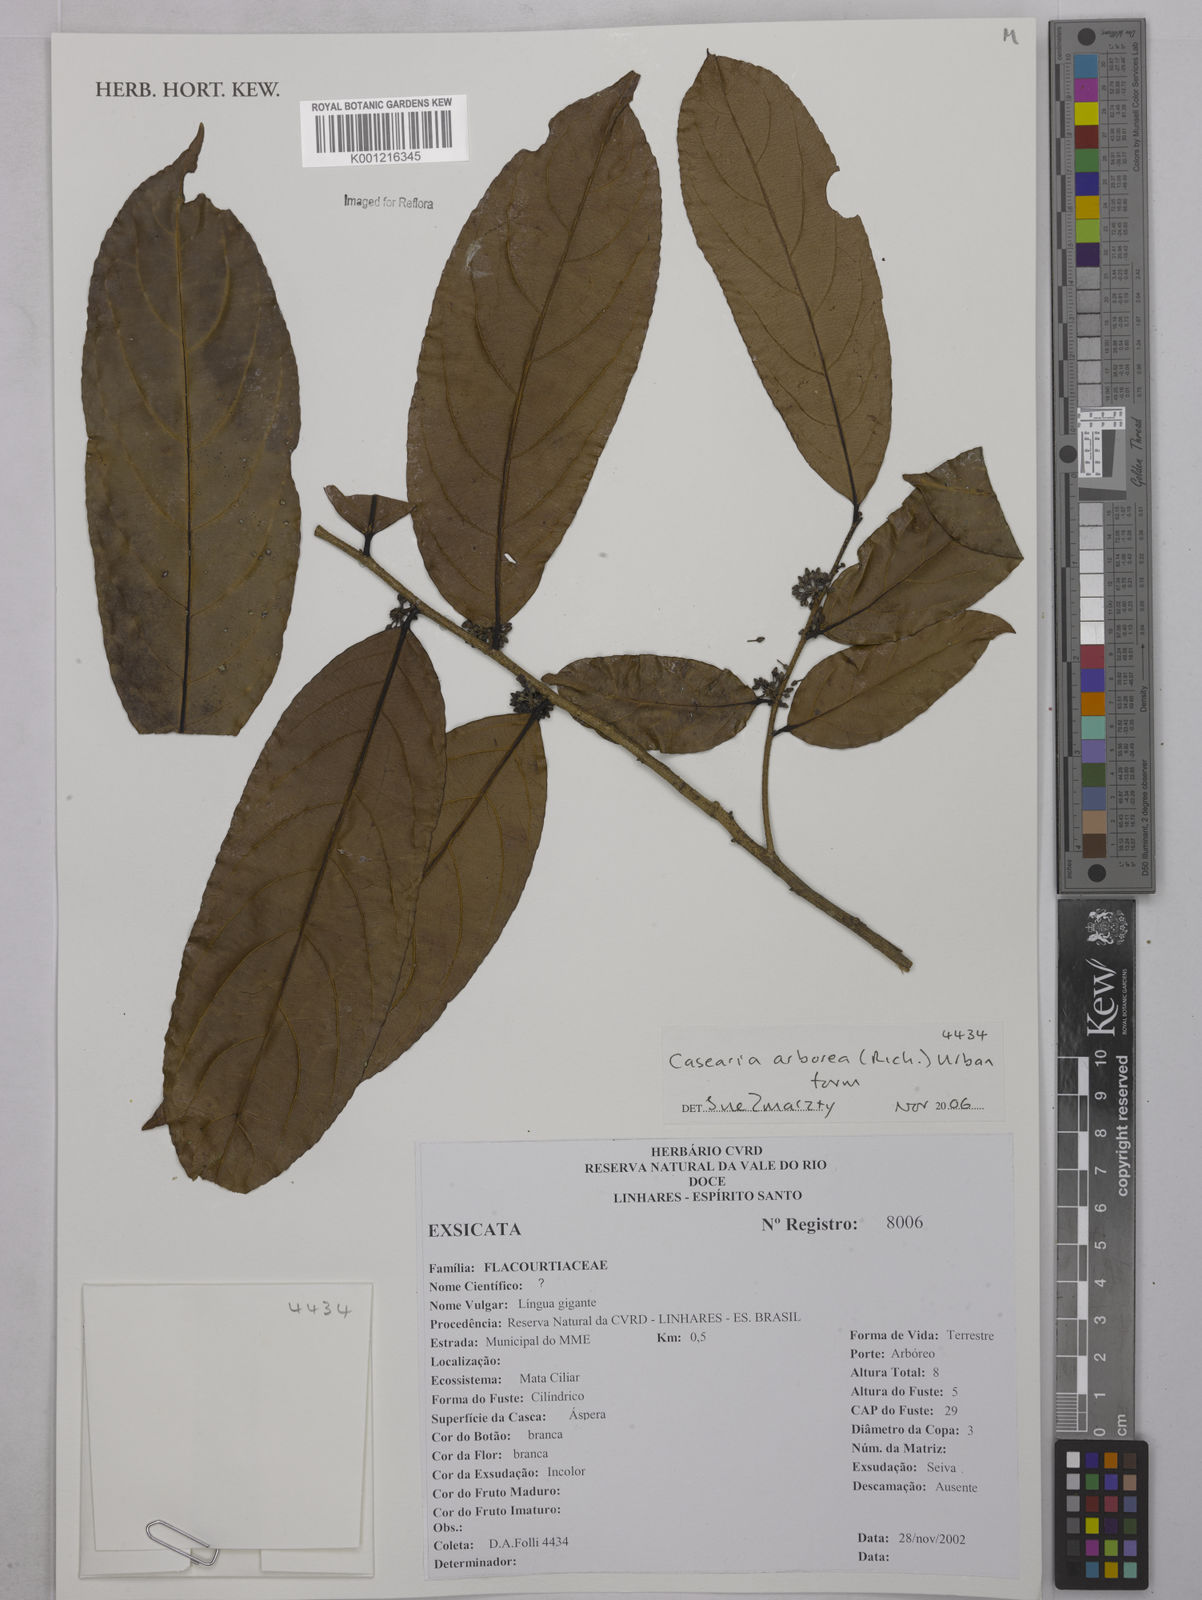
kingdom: Plantae
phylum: Tracheophyta
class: Magnoliopsida
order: Malpighiales
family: Salicaceae
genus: Casearia
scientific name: Casearia arborea
